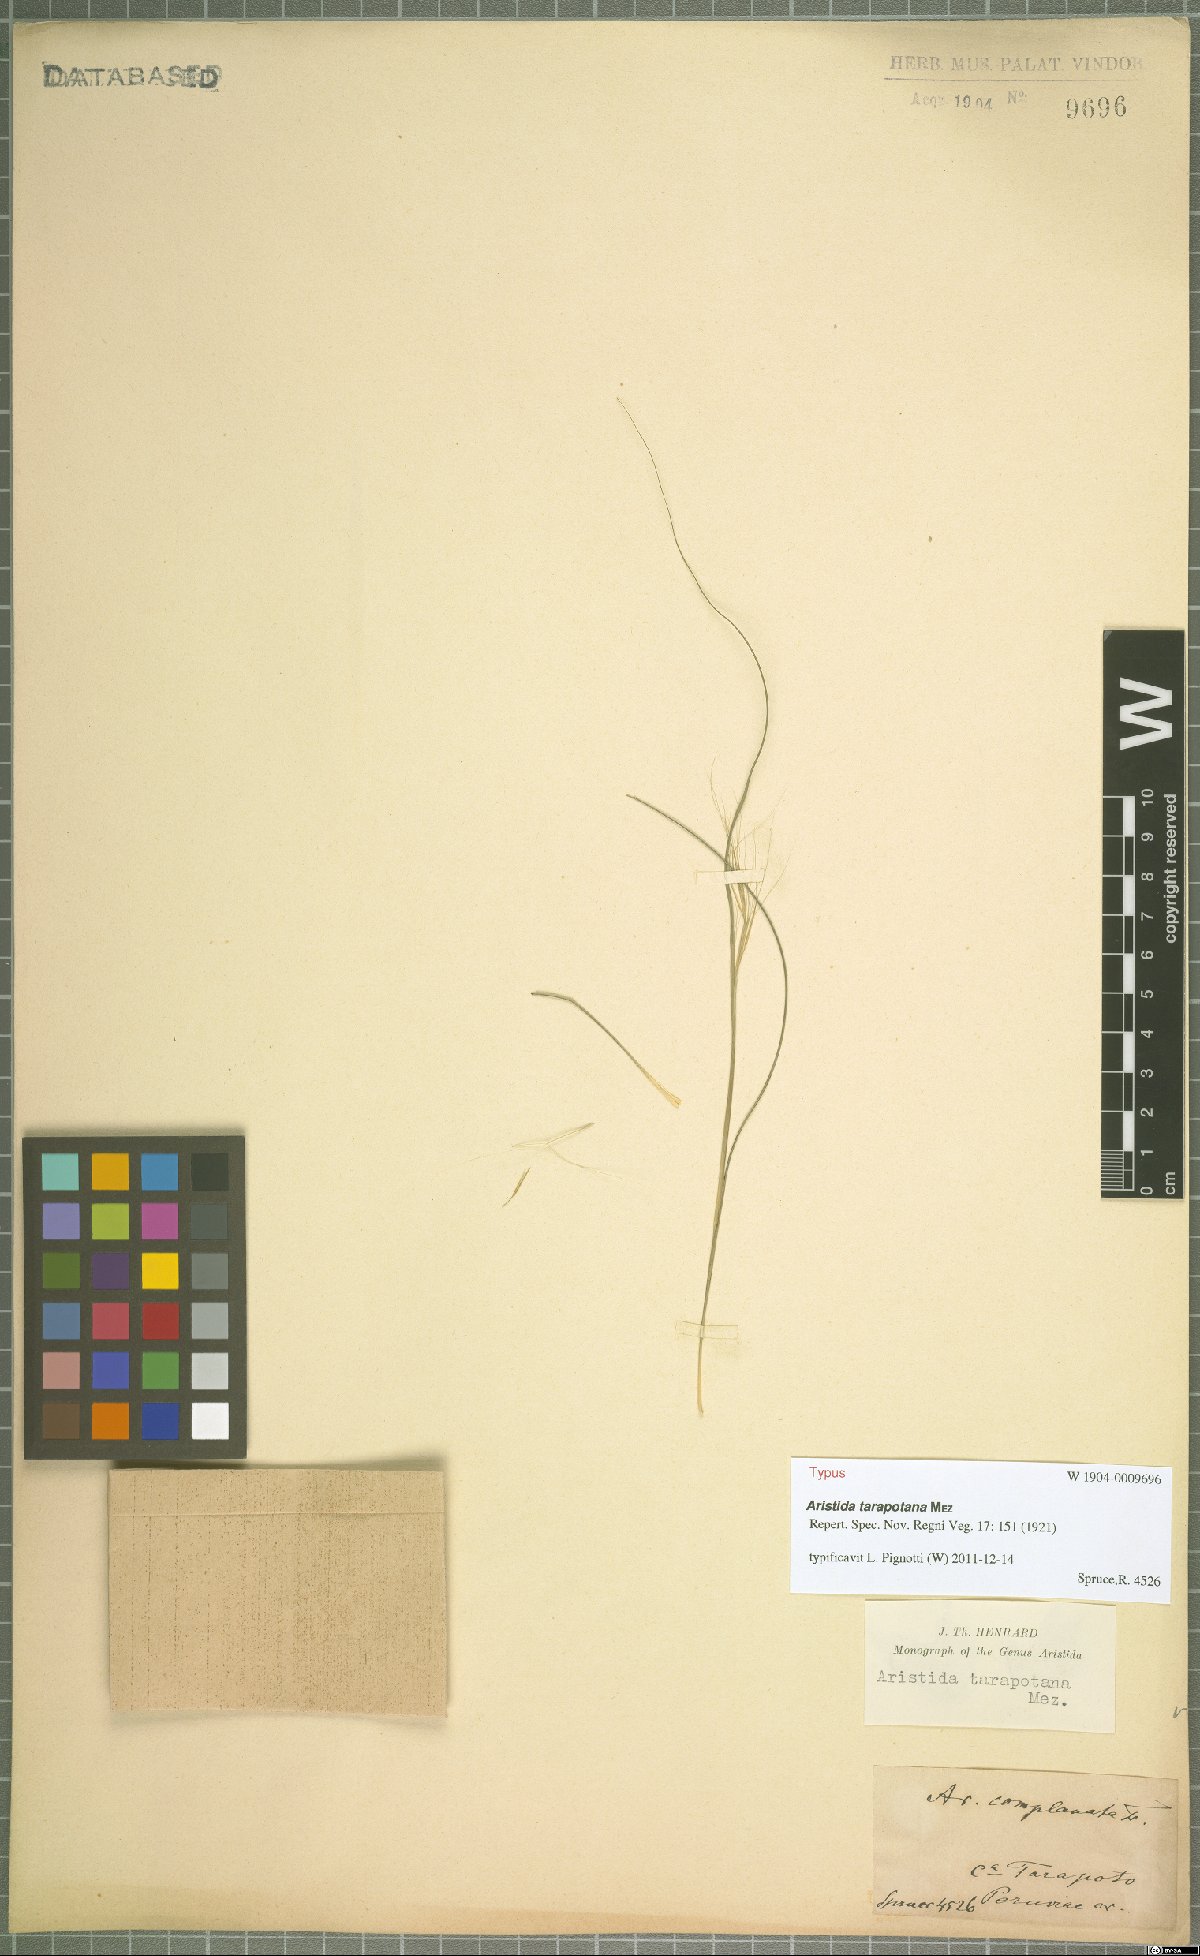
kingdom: Plantae
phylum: Tracheophyta
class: Liliopsida
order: Poales
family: Poaceae
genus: Aristida
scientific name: Aristida tarapotana
